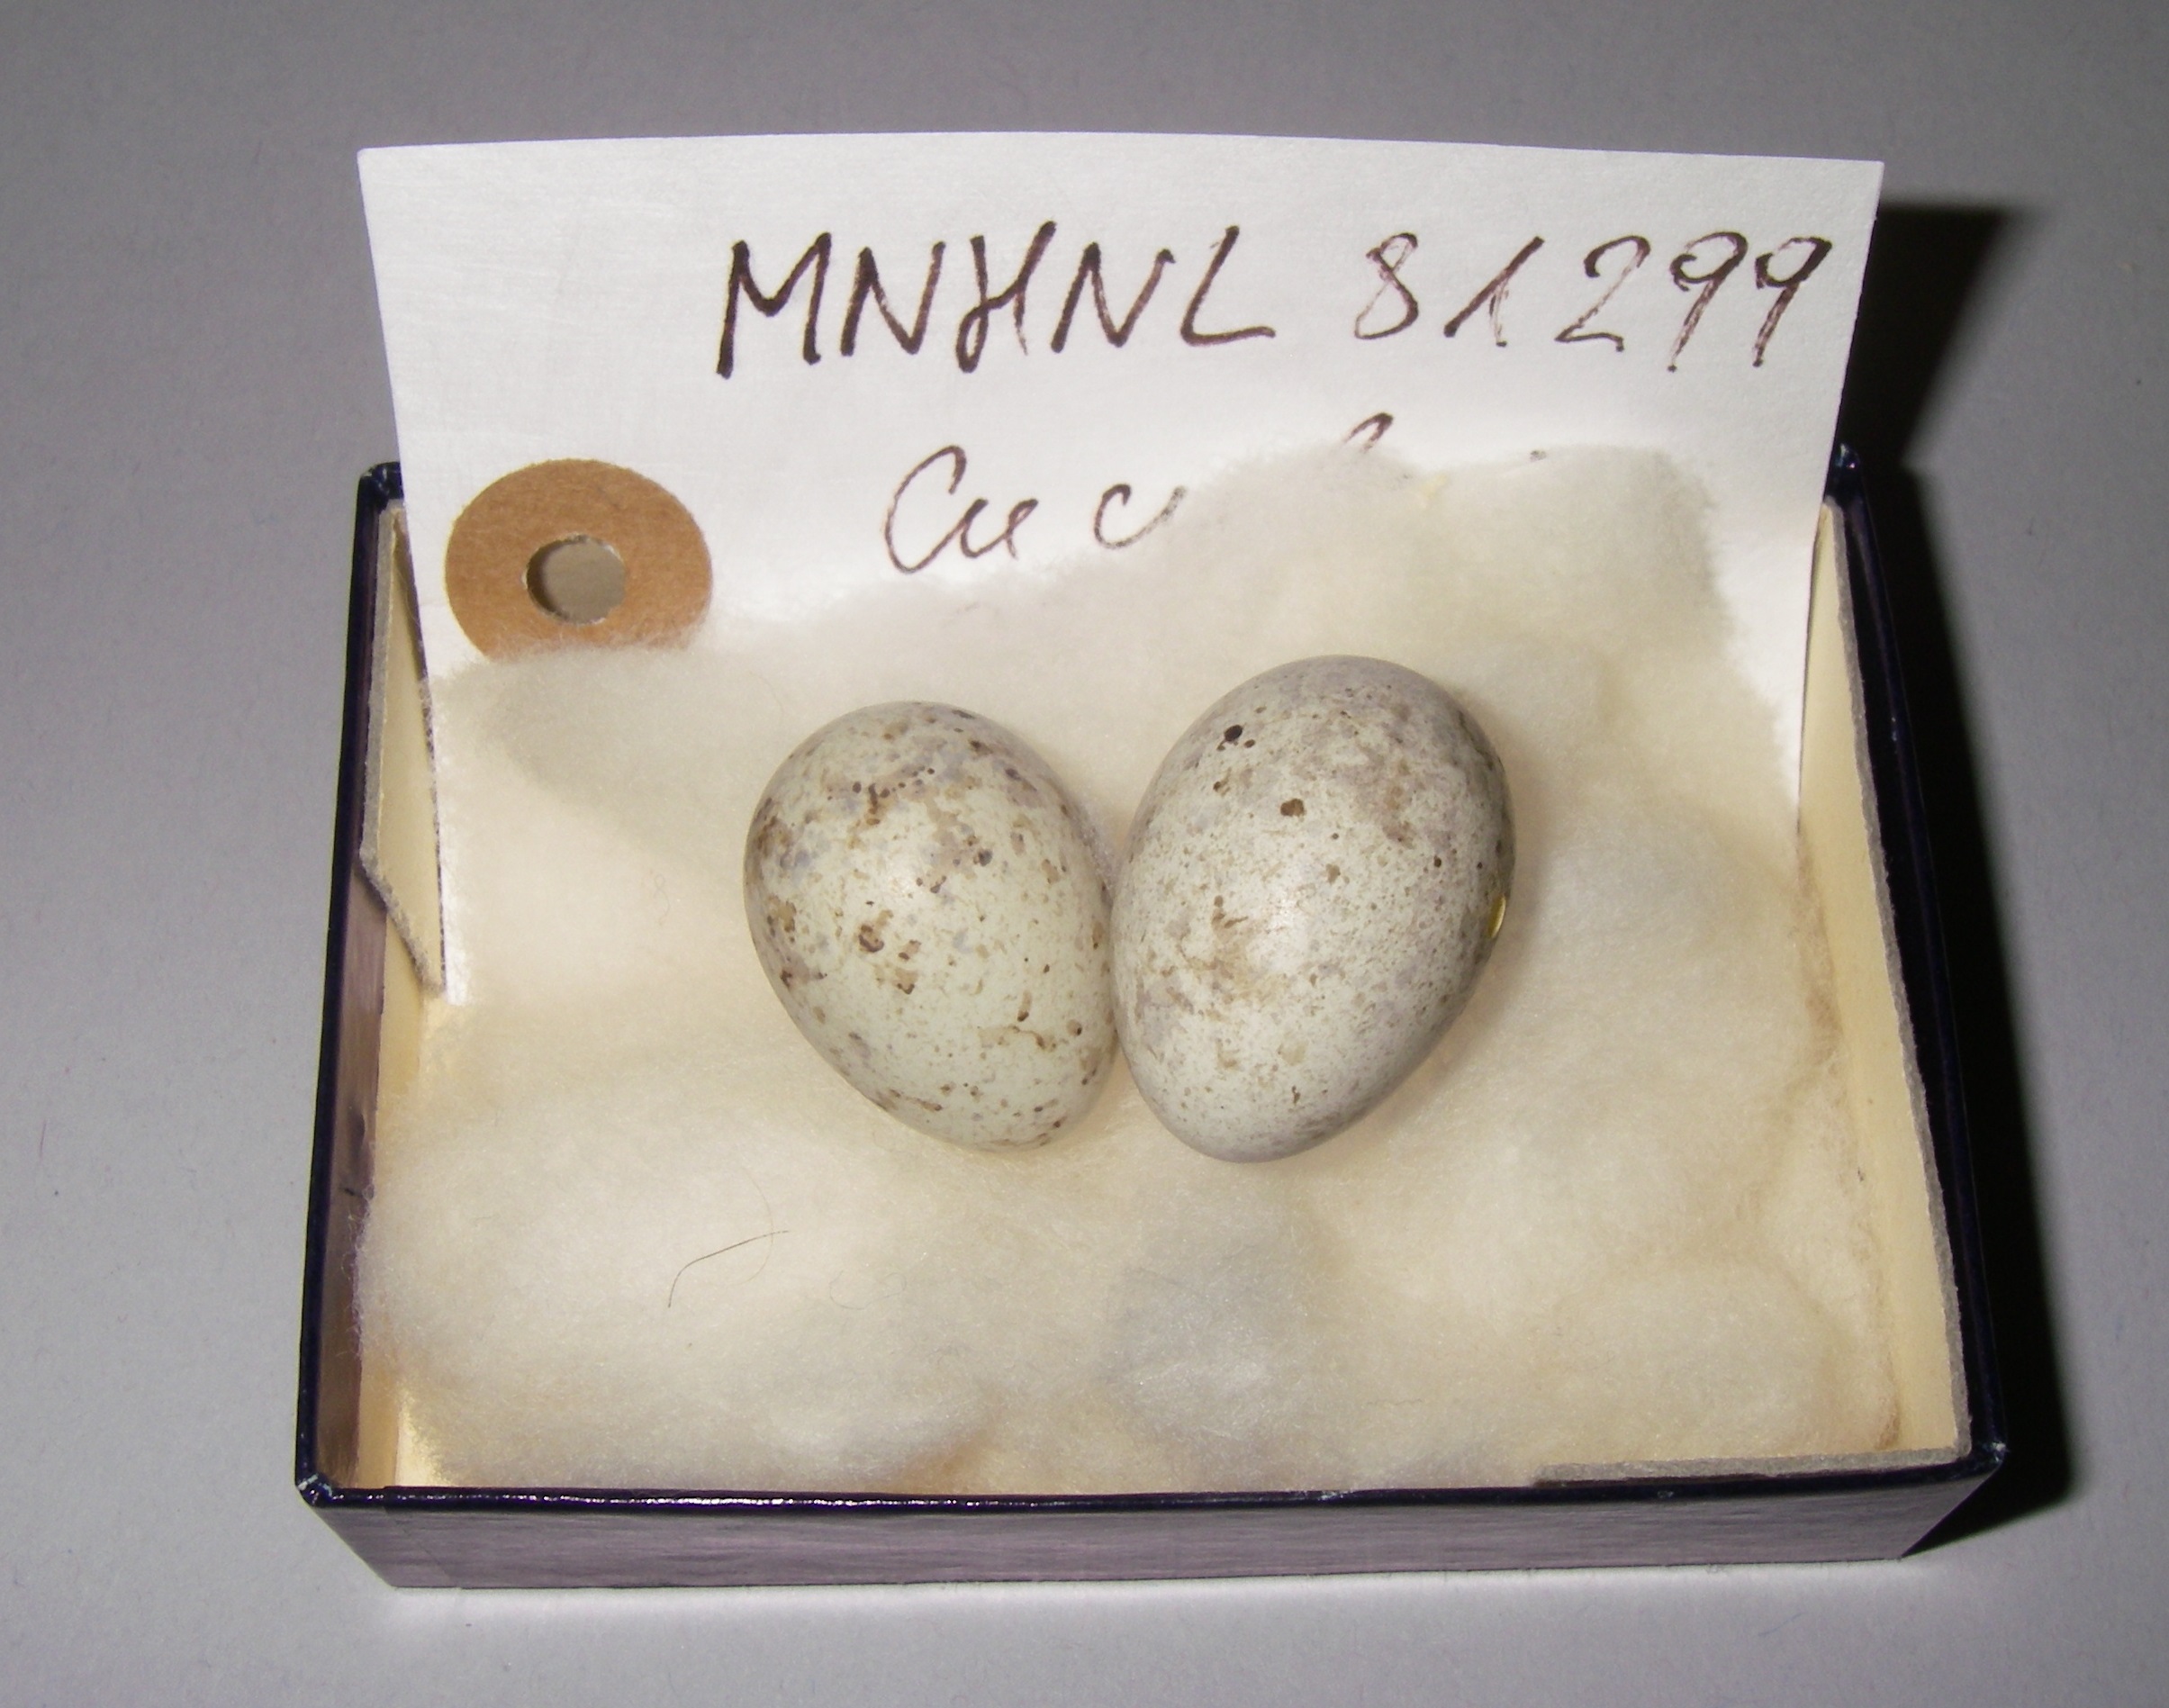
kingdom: Animalia
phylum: Chordata
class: Aves
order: Cuculiformes
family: Cuculidae
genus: Cuculus
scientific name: Cuculus canorus
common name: Common cuckoo
